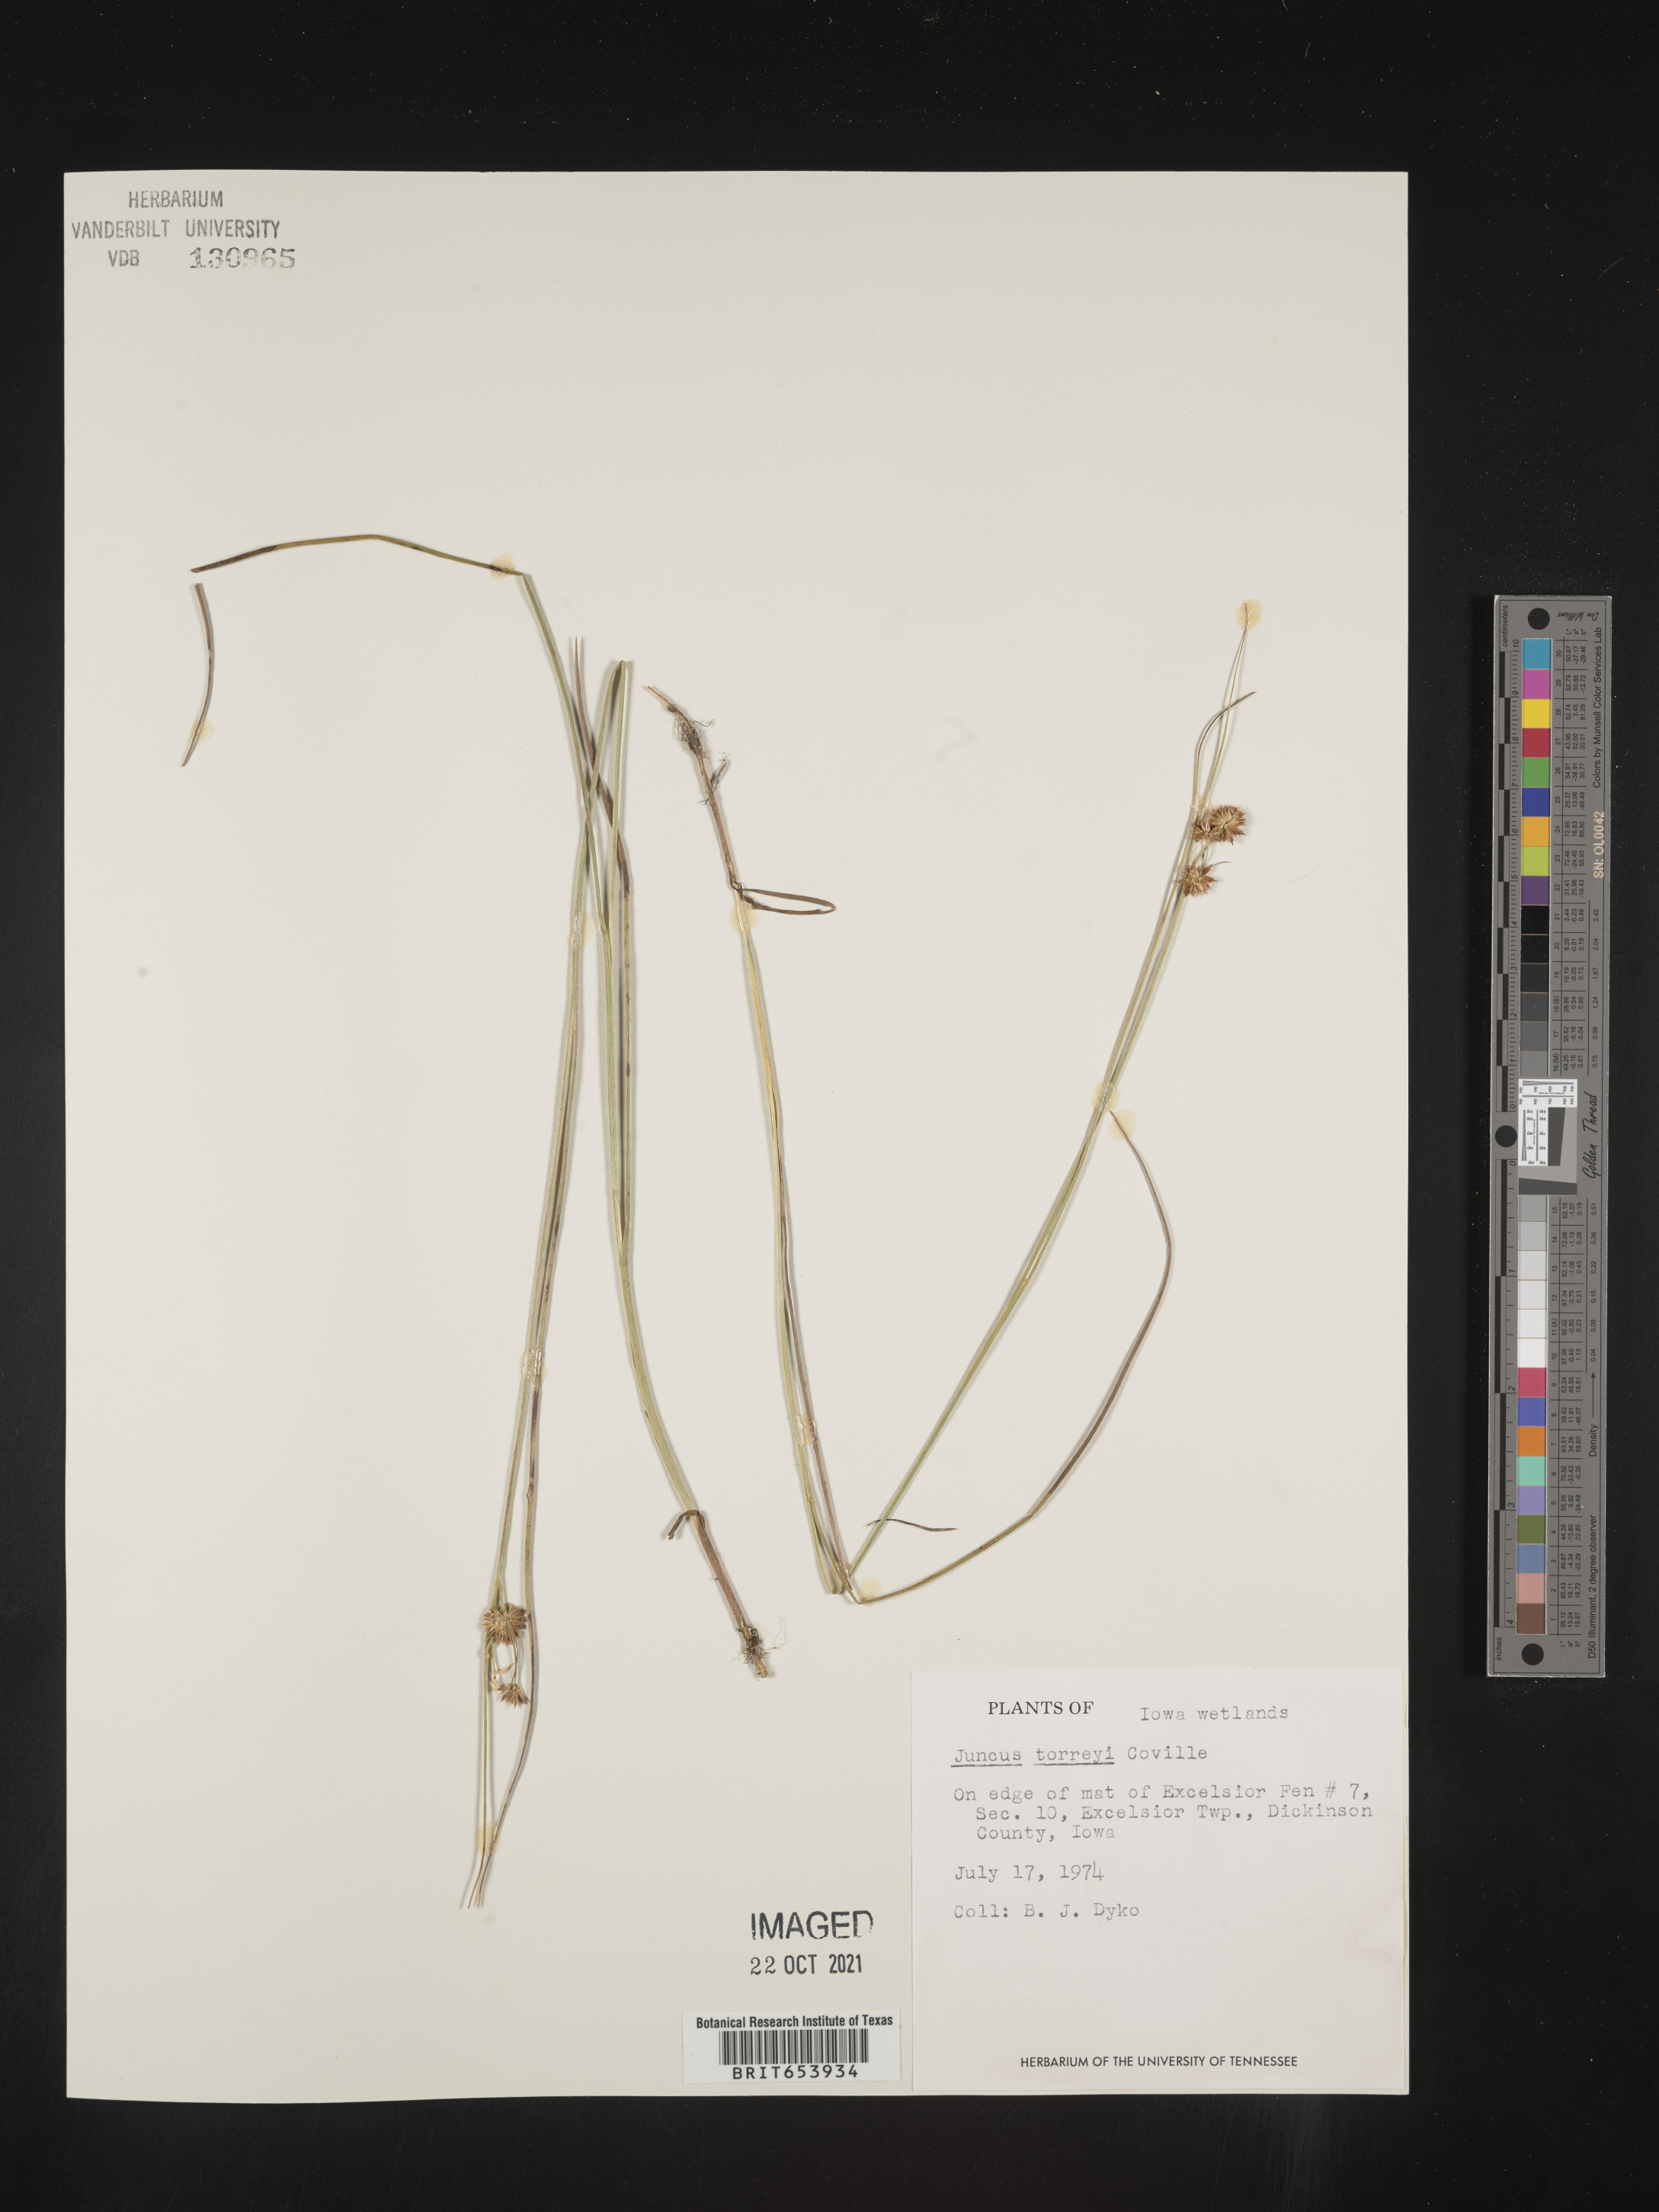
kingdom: Plantae
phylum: Tracheophyta
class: Liliopsida
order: Poales
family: Juncaceae
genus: Juncus
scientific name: Juncus torreyi
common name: Torrey's rush
